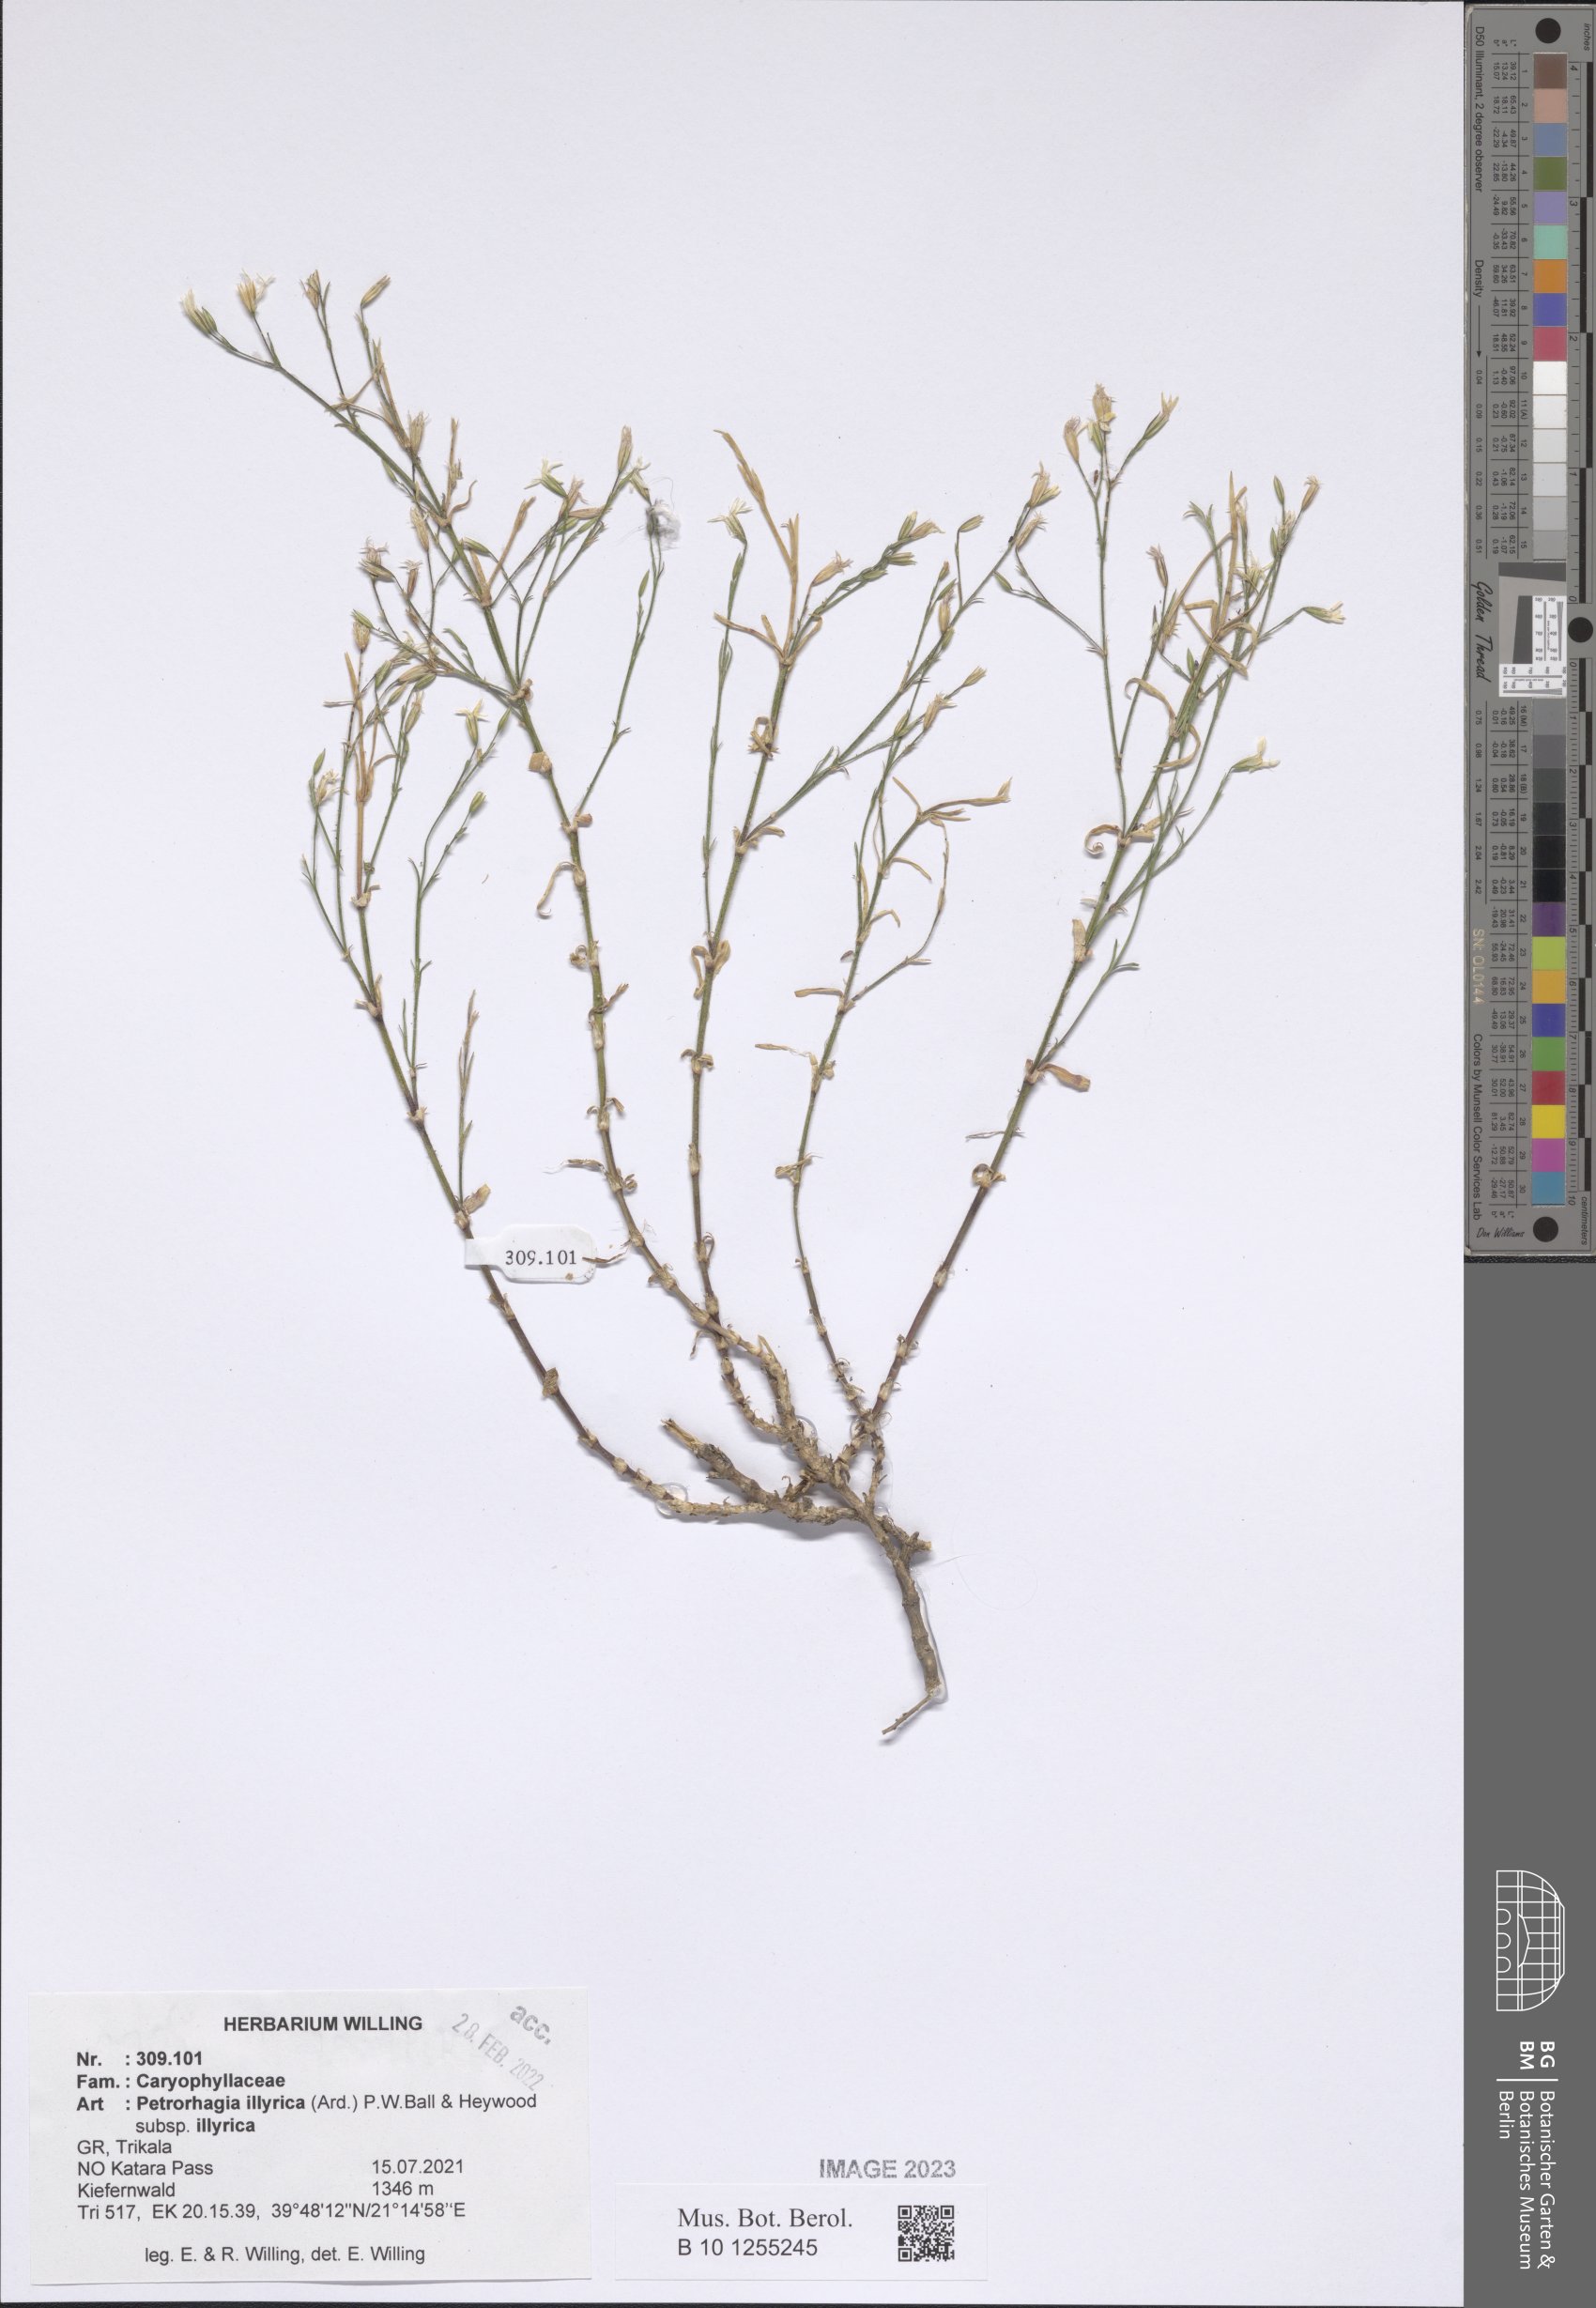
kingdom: Plantae
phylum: Tracheophyta
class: Magnoliopsida
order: Caryophyllales
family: Caryophyllaceae
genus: Dianthus
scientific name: Dianthus illyricus
